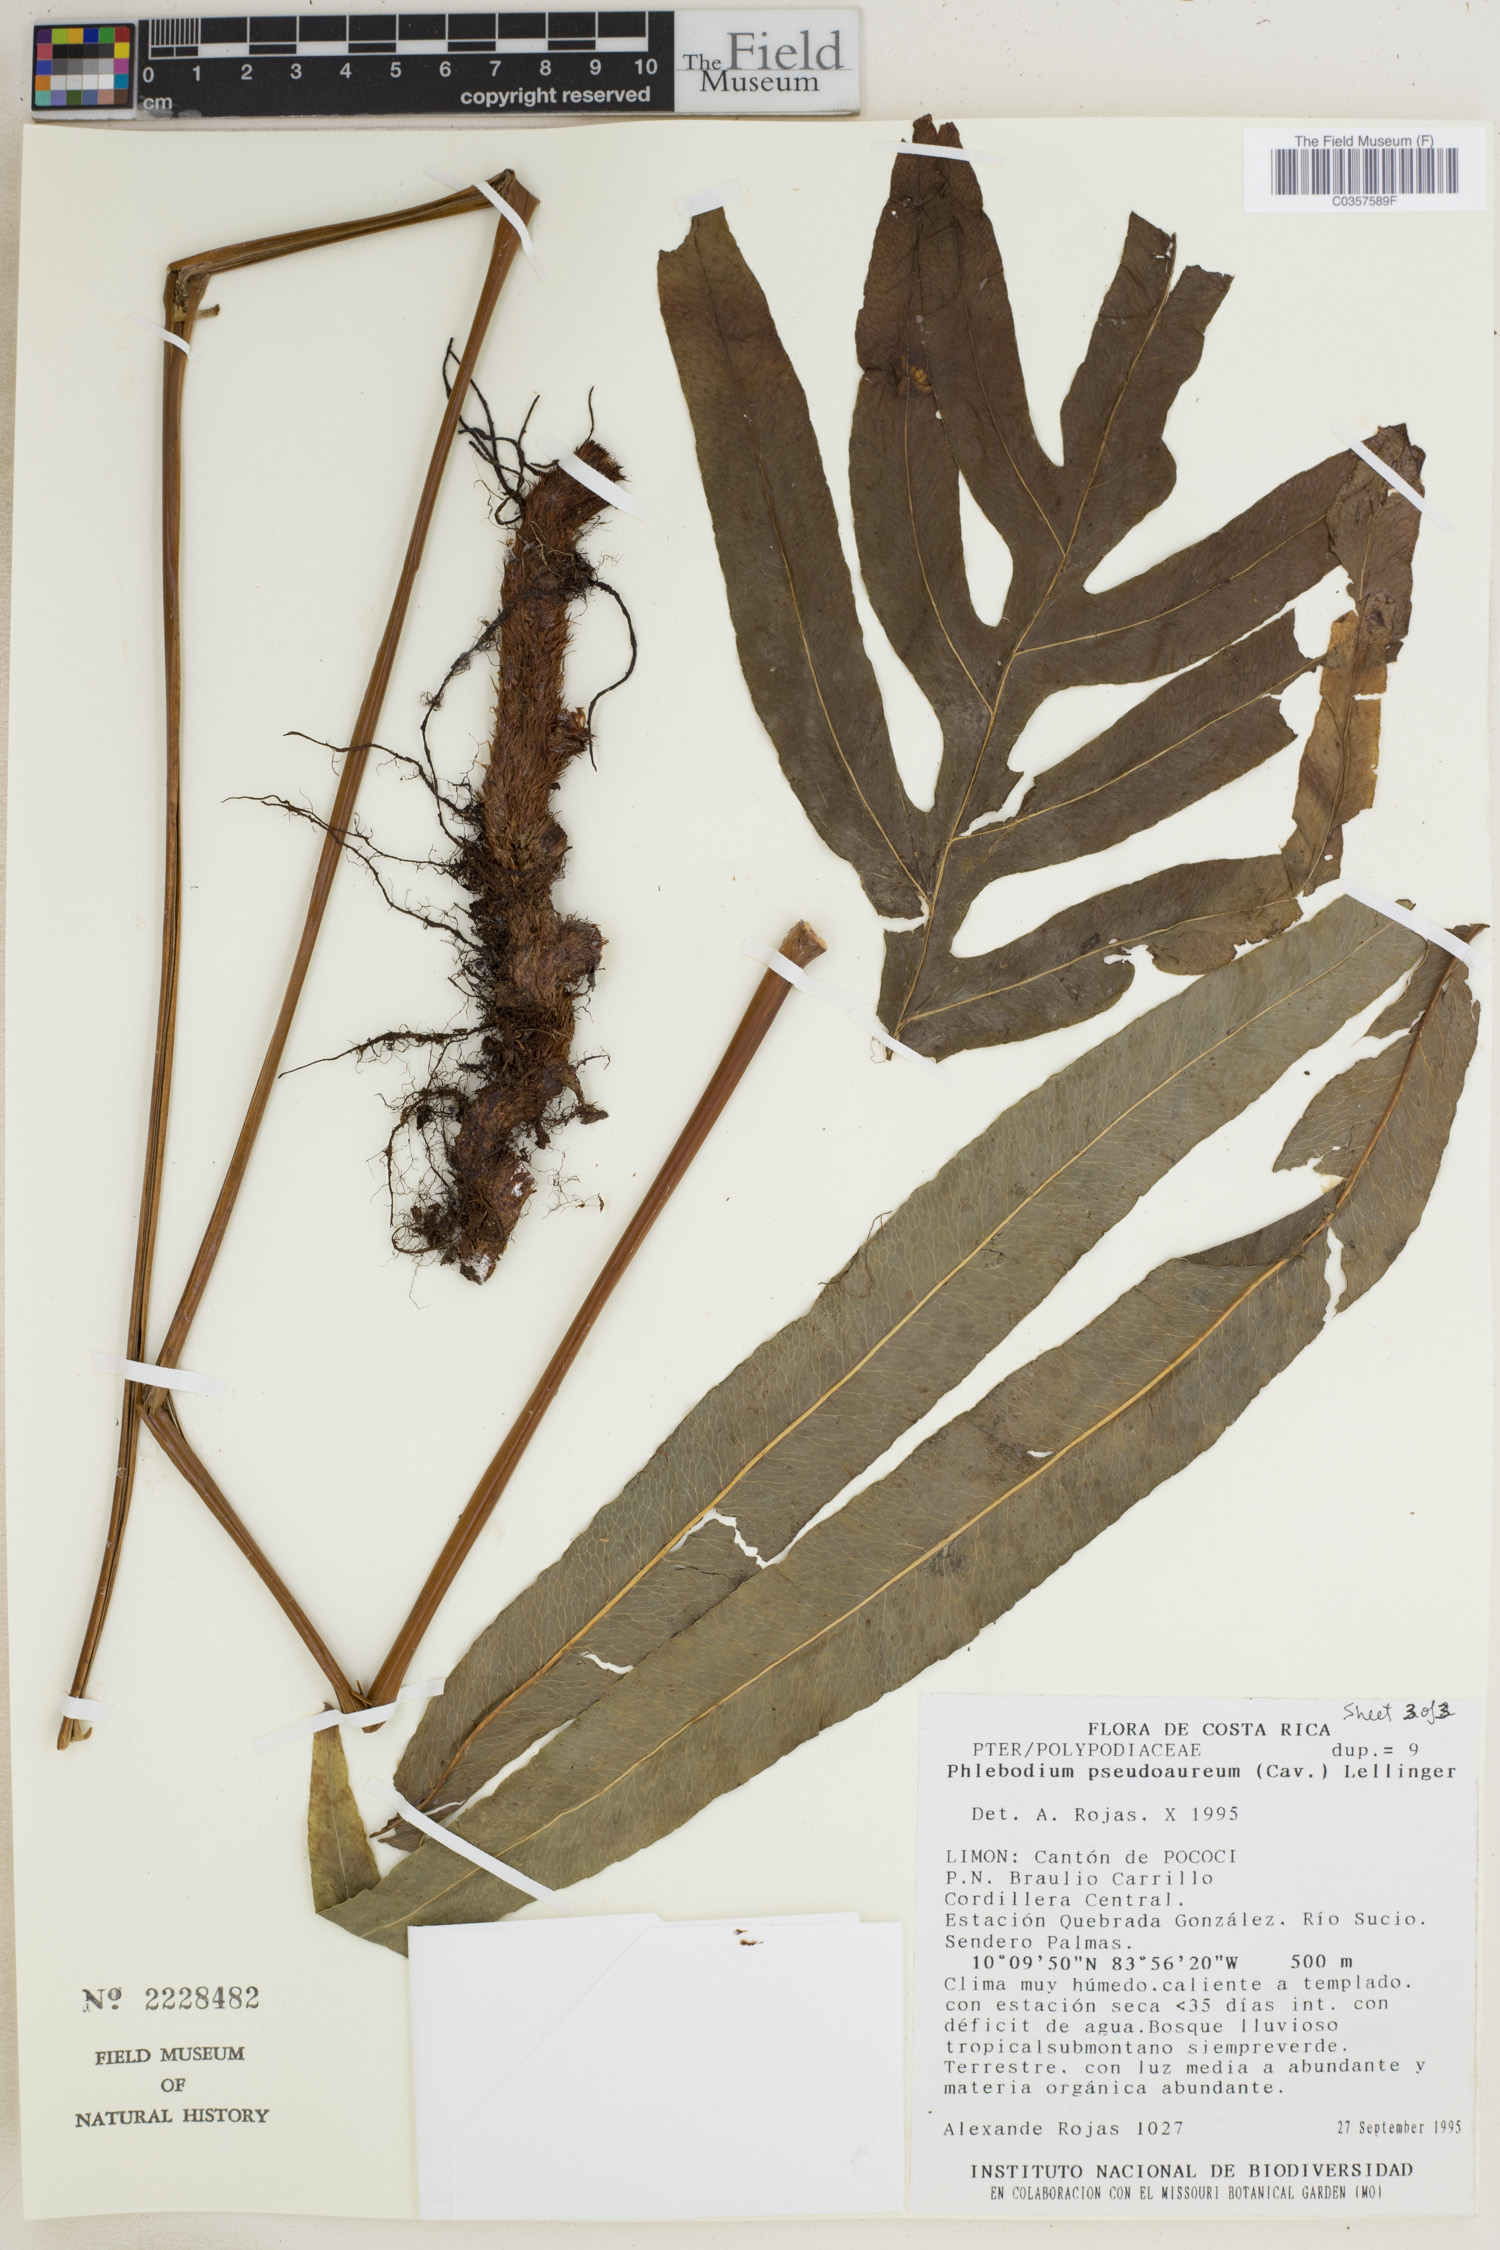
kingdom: Plantae
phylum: Tracheophyta
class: Polypodiopsida
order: Polypodiales
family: Polypodiaceae
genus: Phlebodium
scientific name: Phlebodium pseudoaureum
